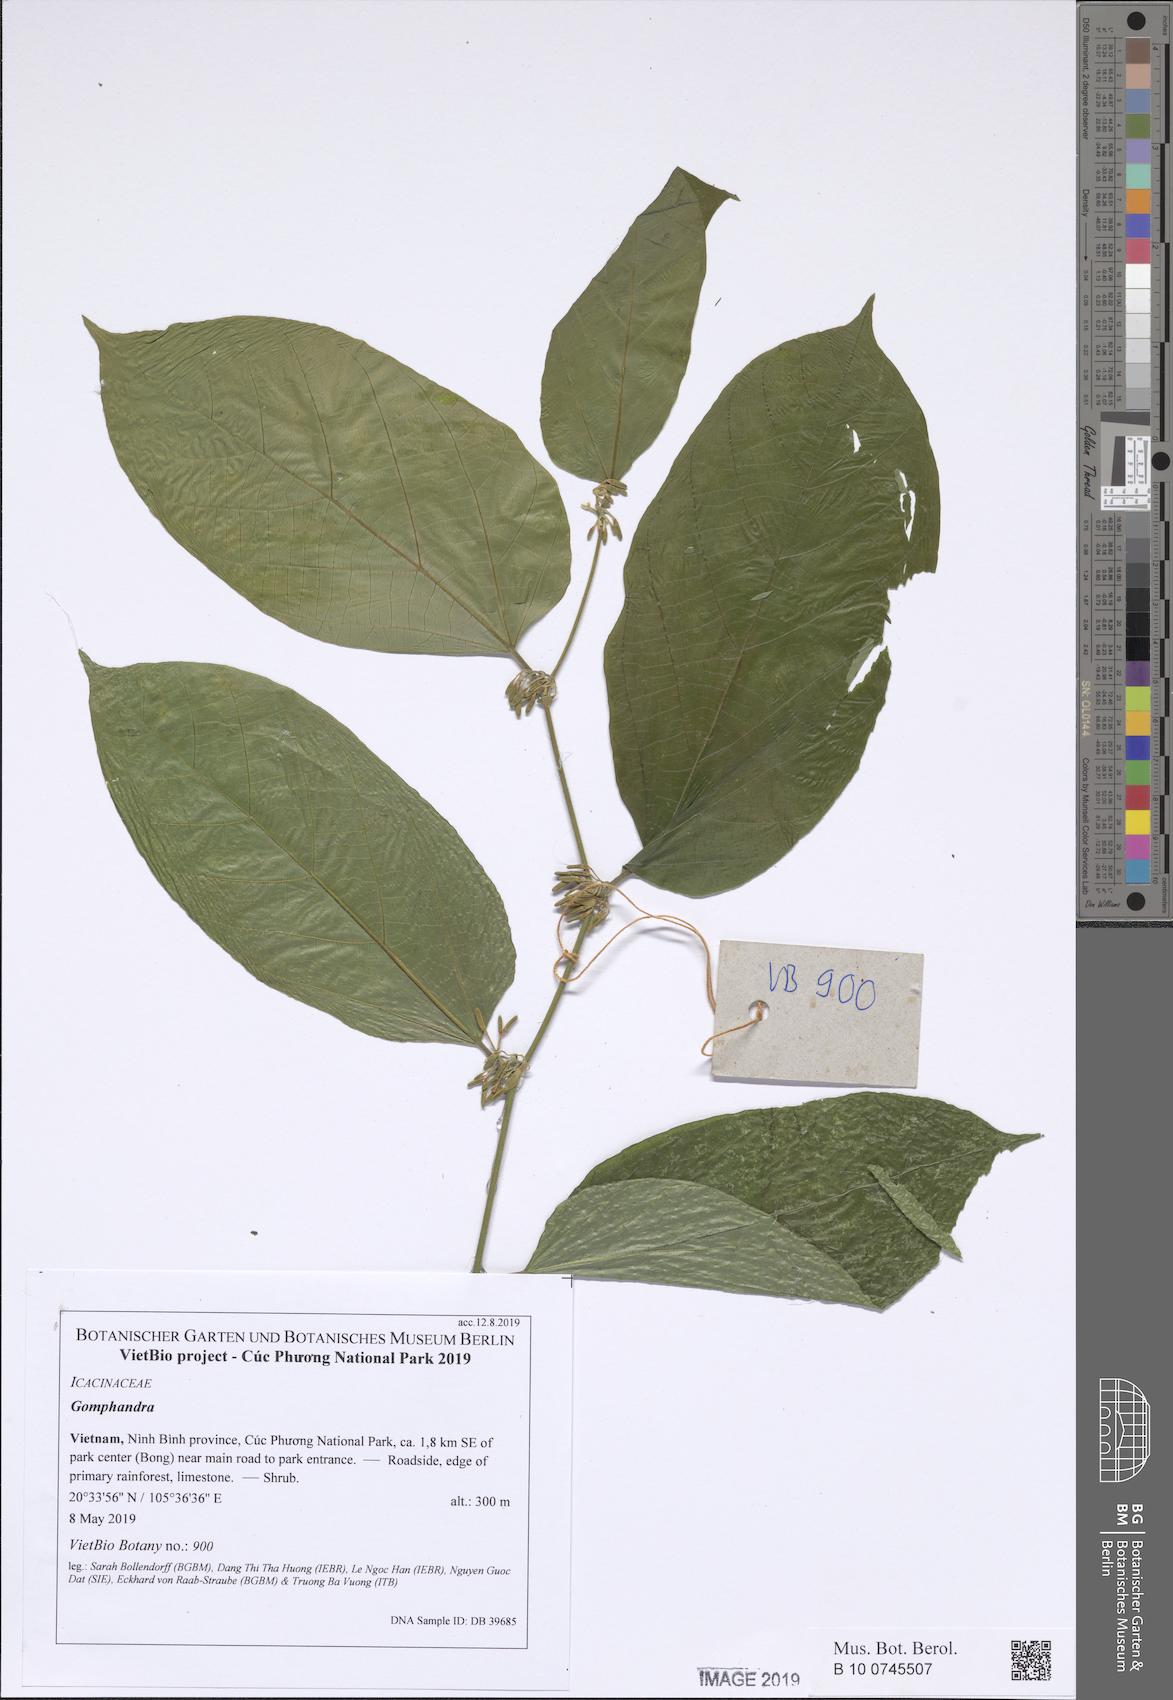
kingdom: Plantae
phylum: Tracheophyta
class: Magnoliopsida
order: Cardiopteridales
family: Stemonuraceae
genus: Gomphandra
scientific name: Gomphandra tetrandra
